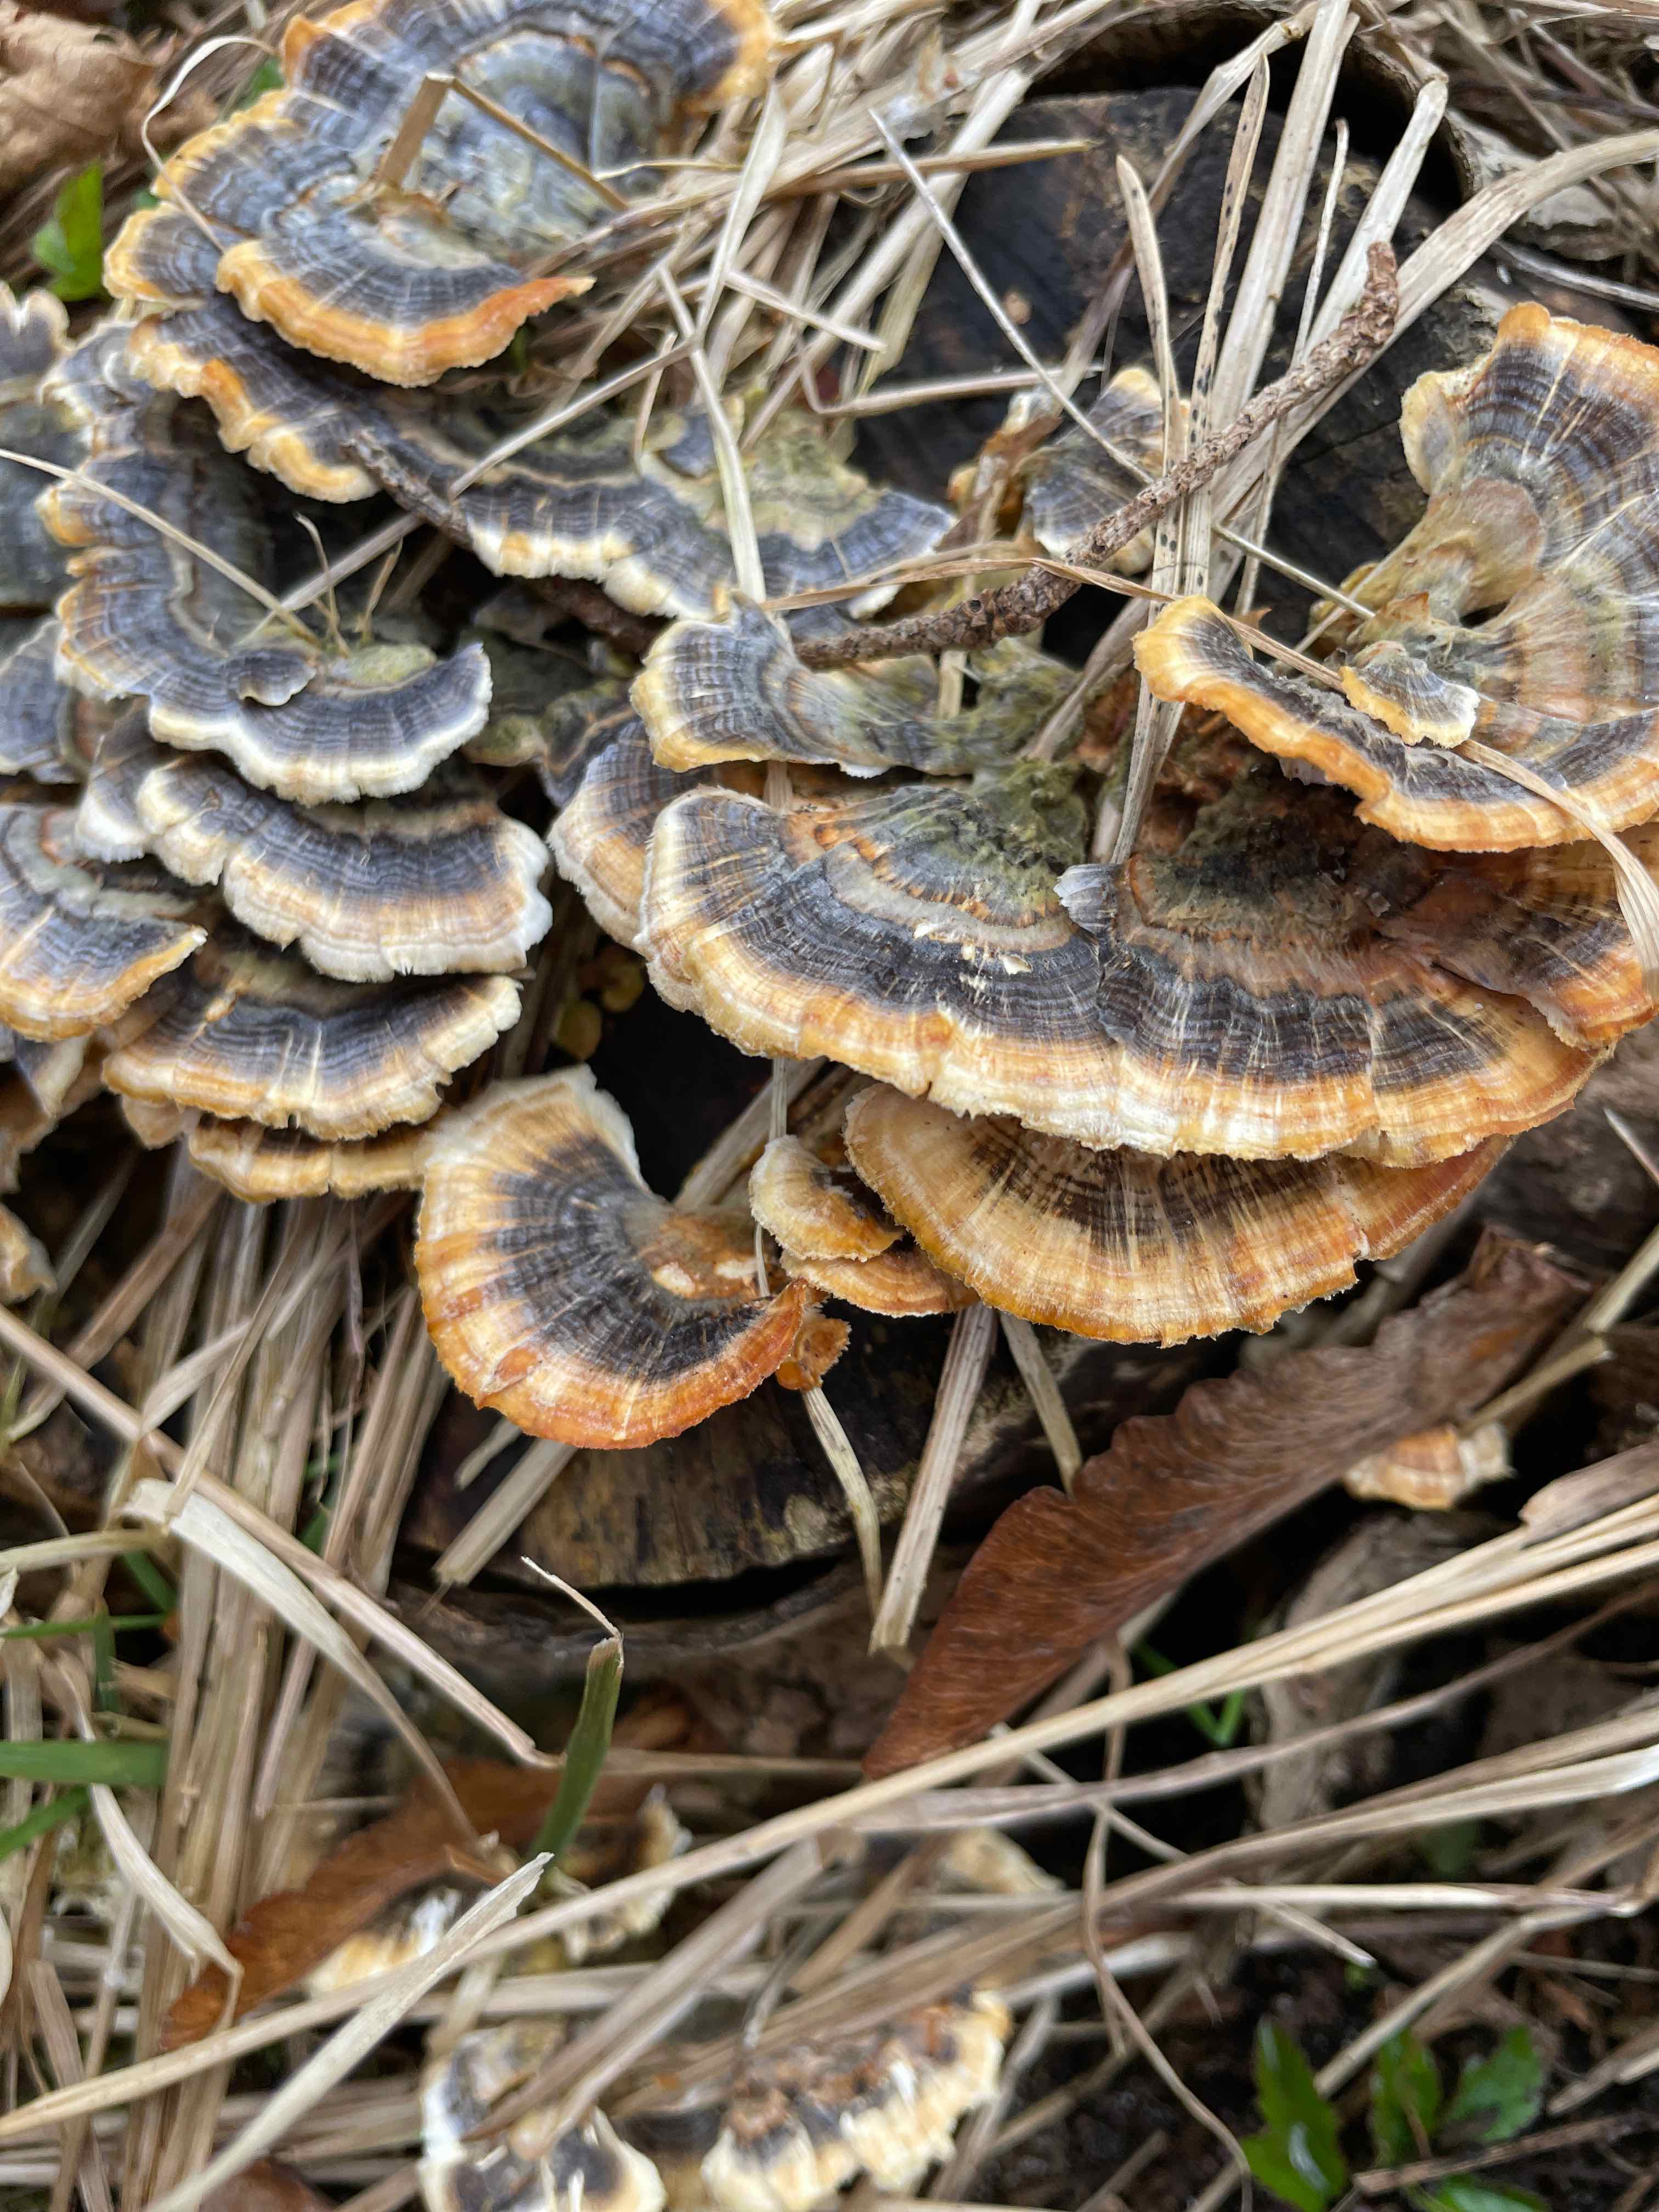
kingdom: Fungi
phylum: Basidiomycota
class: Agaricomycetes
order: Polyporales
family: Polyporaceae
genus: Trametes
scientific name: Trametes versicolor
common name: broget læderporesvamp
